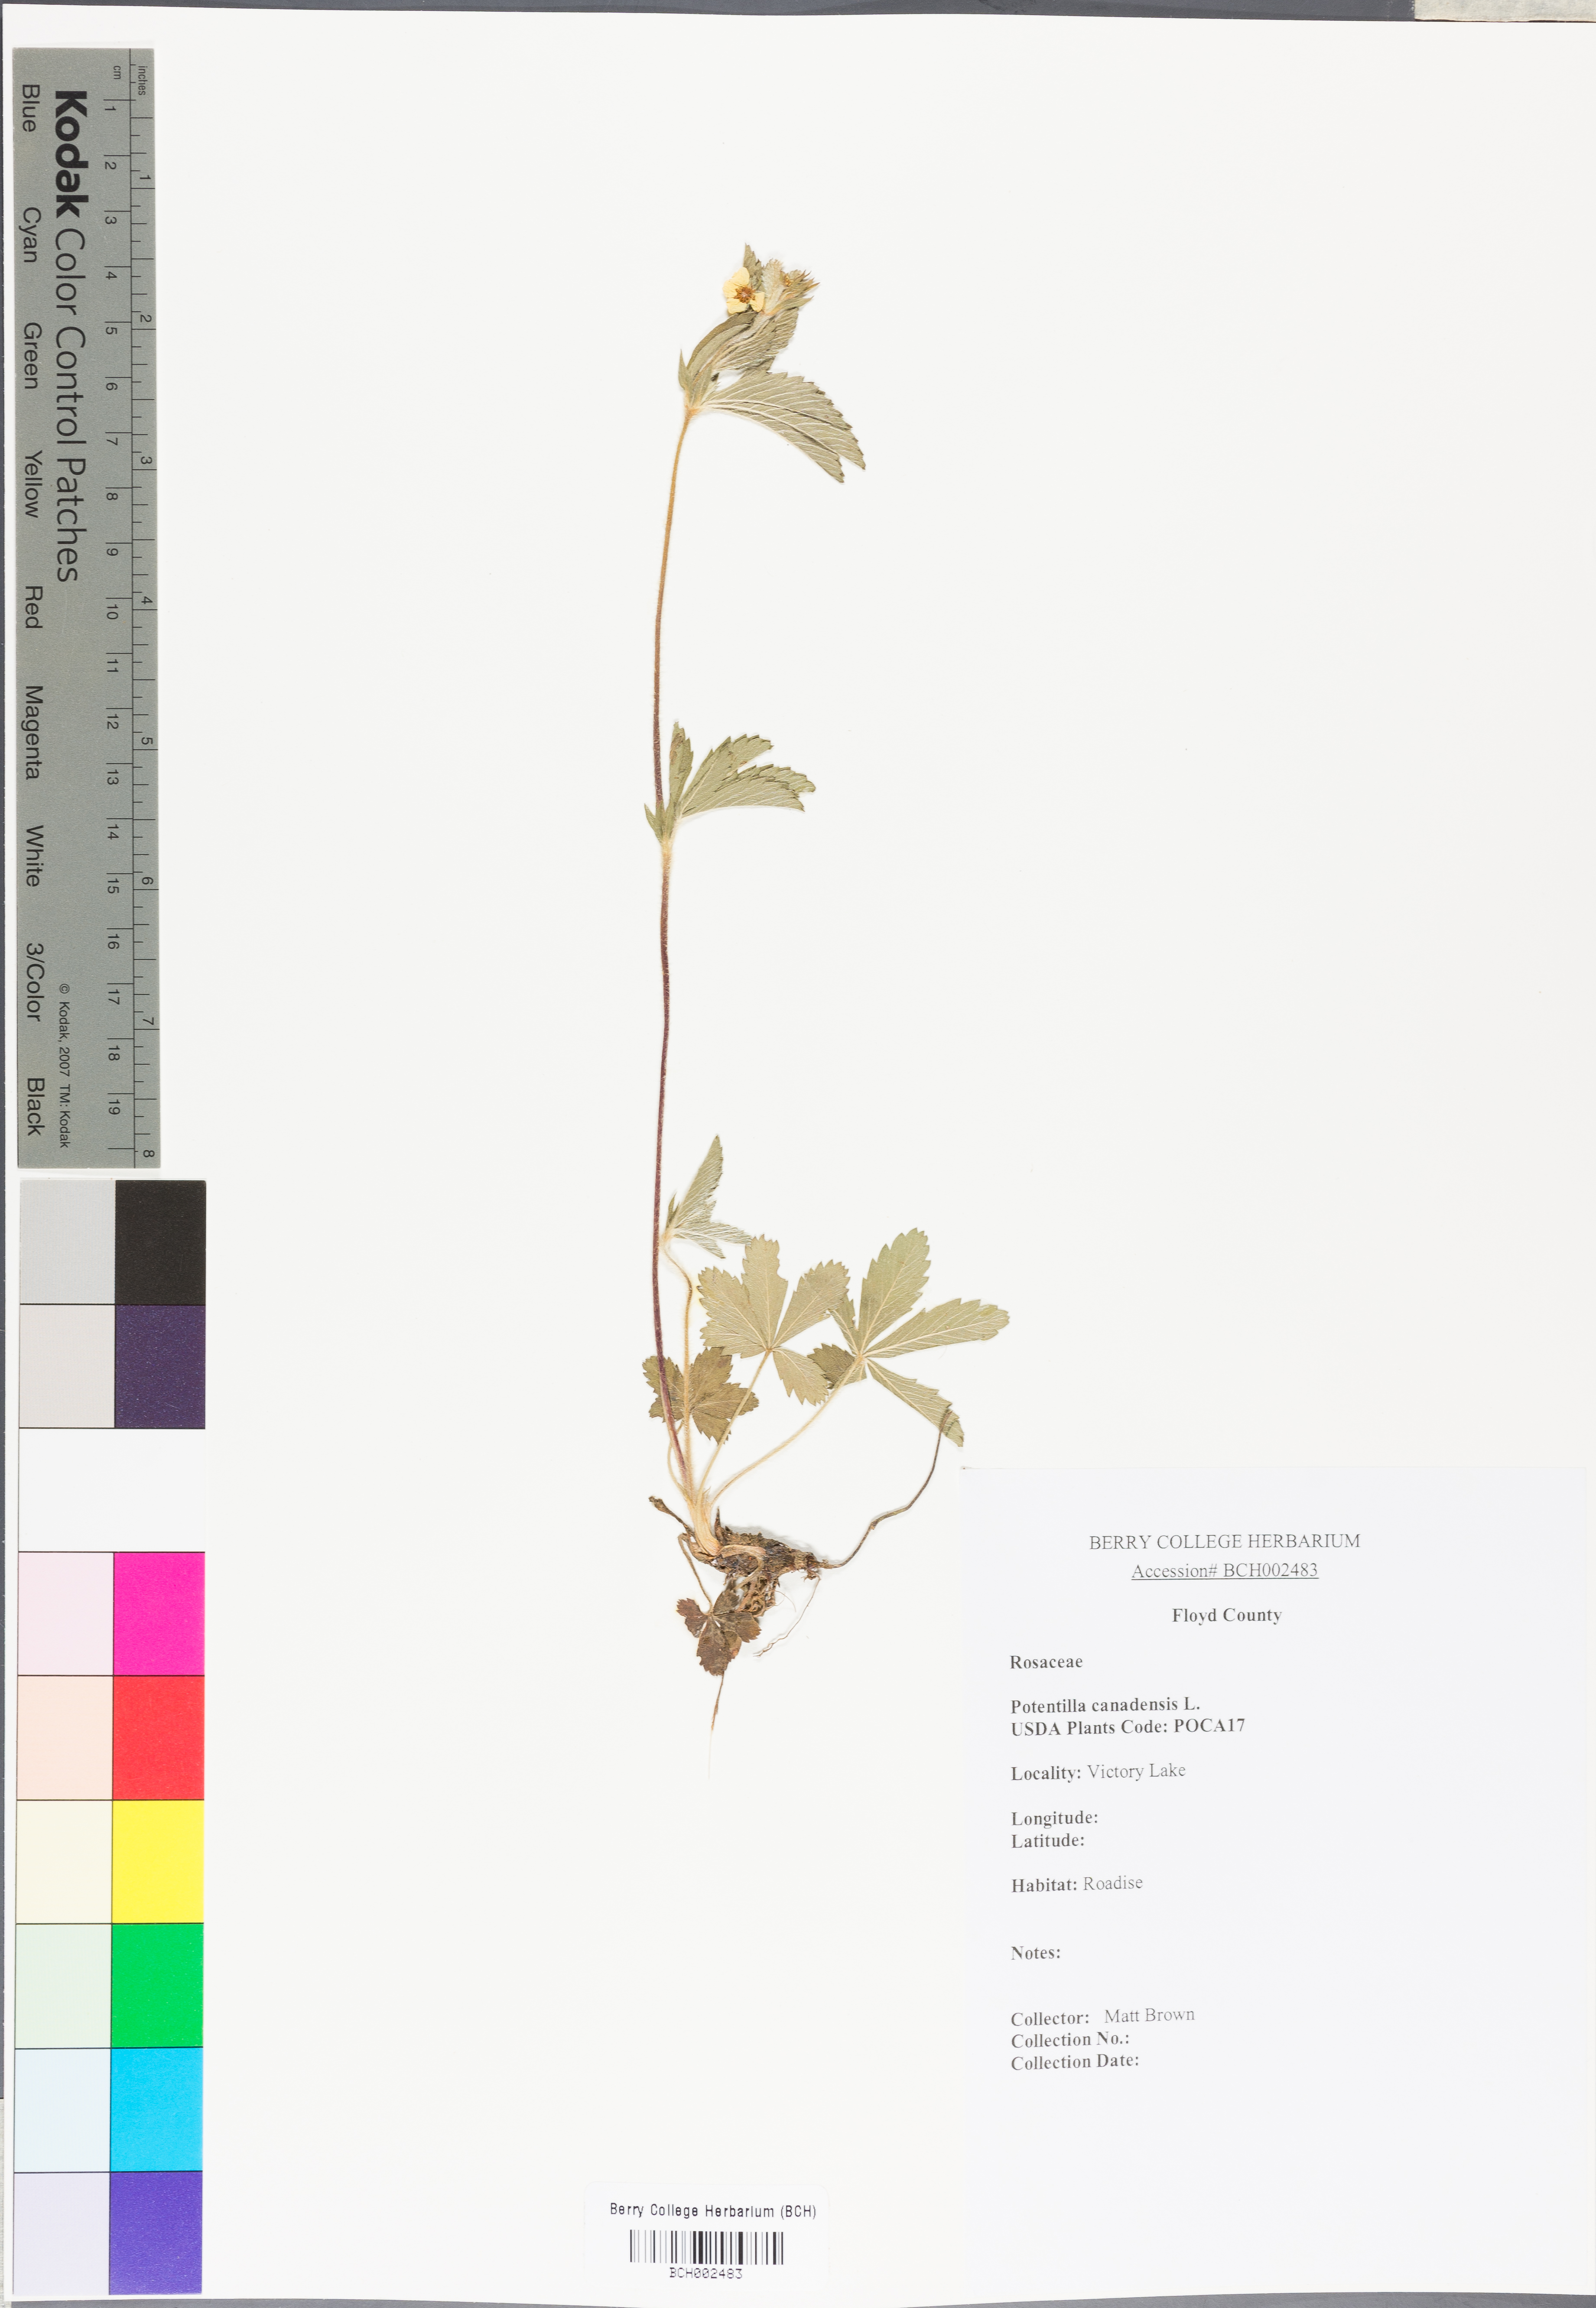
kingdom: Plantae
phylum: Tracheophyta
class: Magnoliopsida
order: Rosales
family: Rosaceae
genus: Potentilla
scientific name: Potentilla canadensis
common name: Canada cinquefoil
